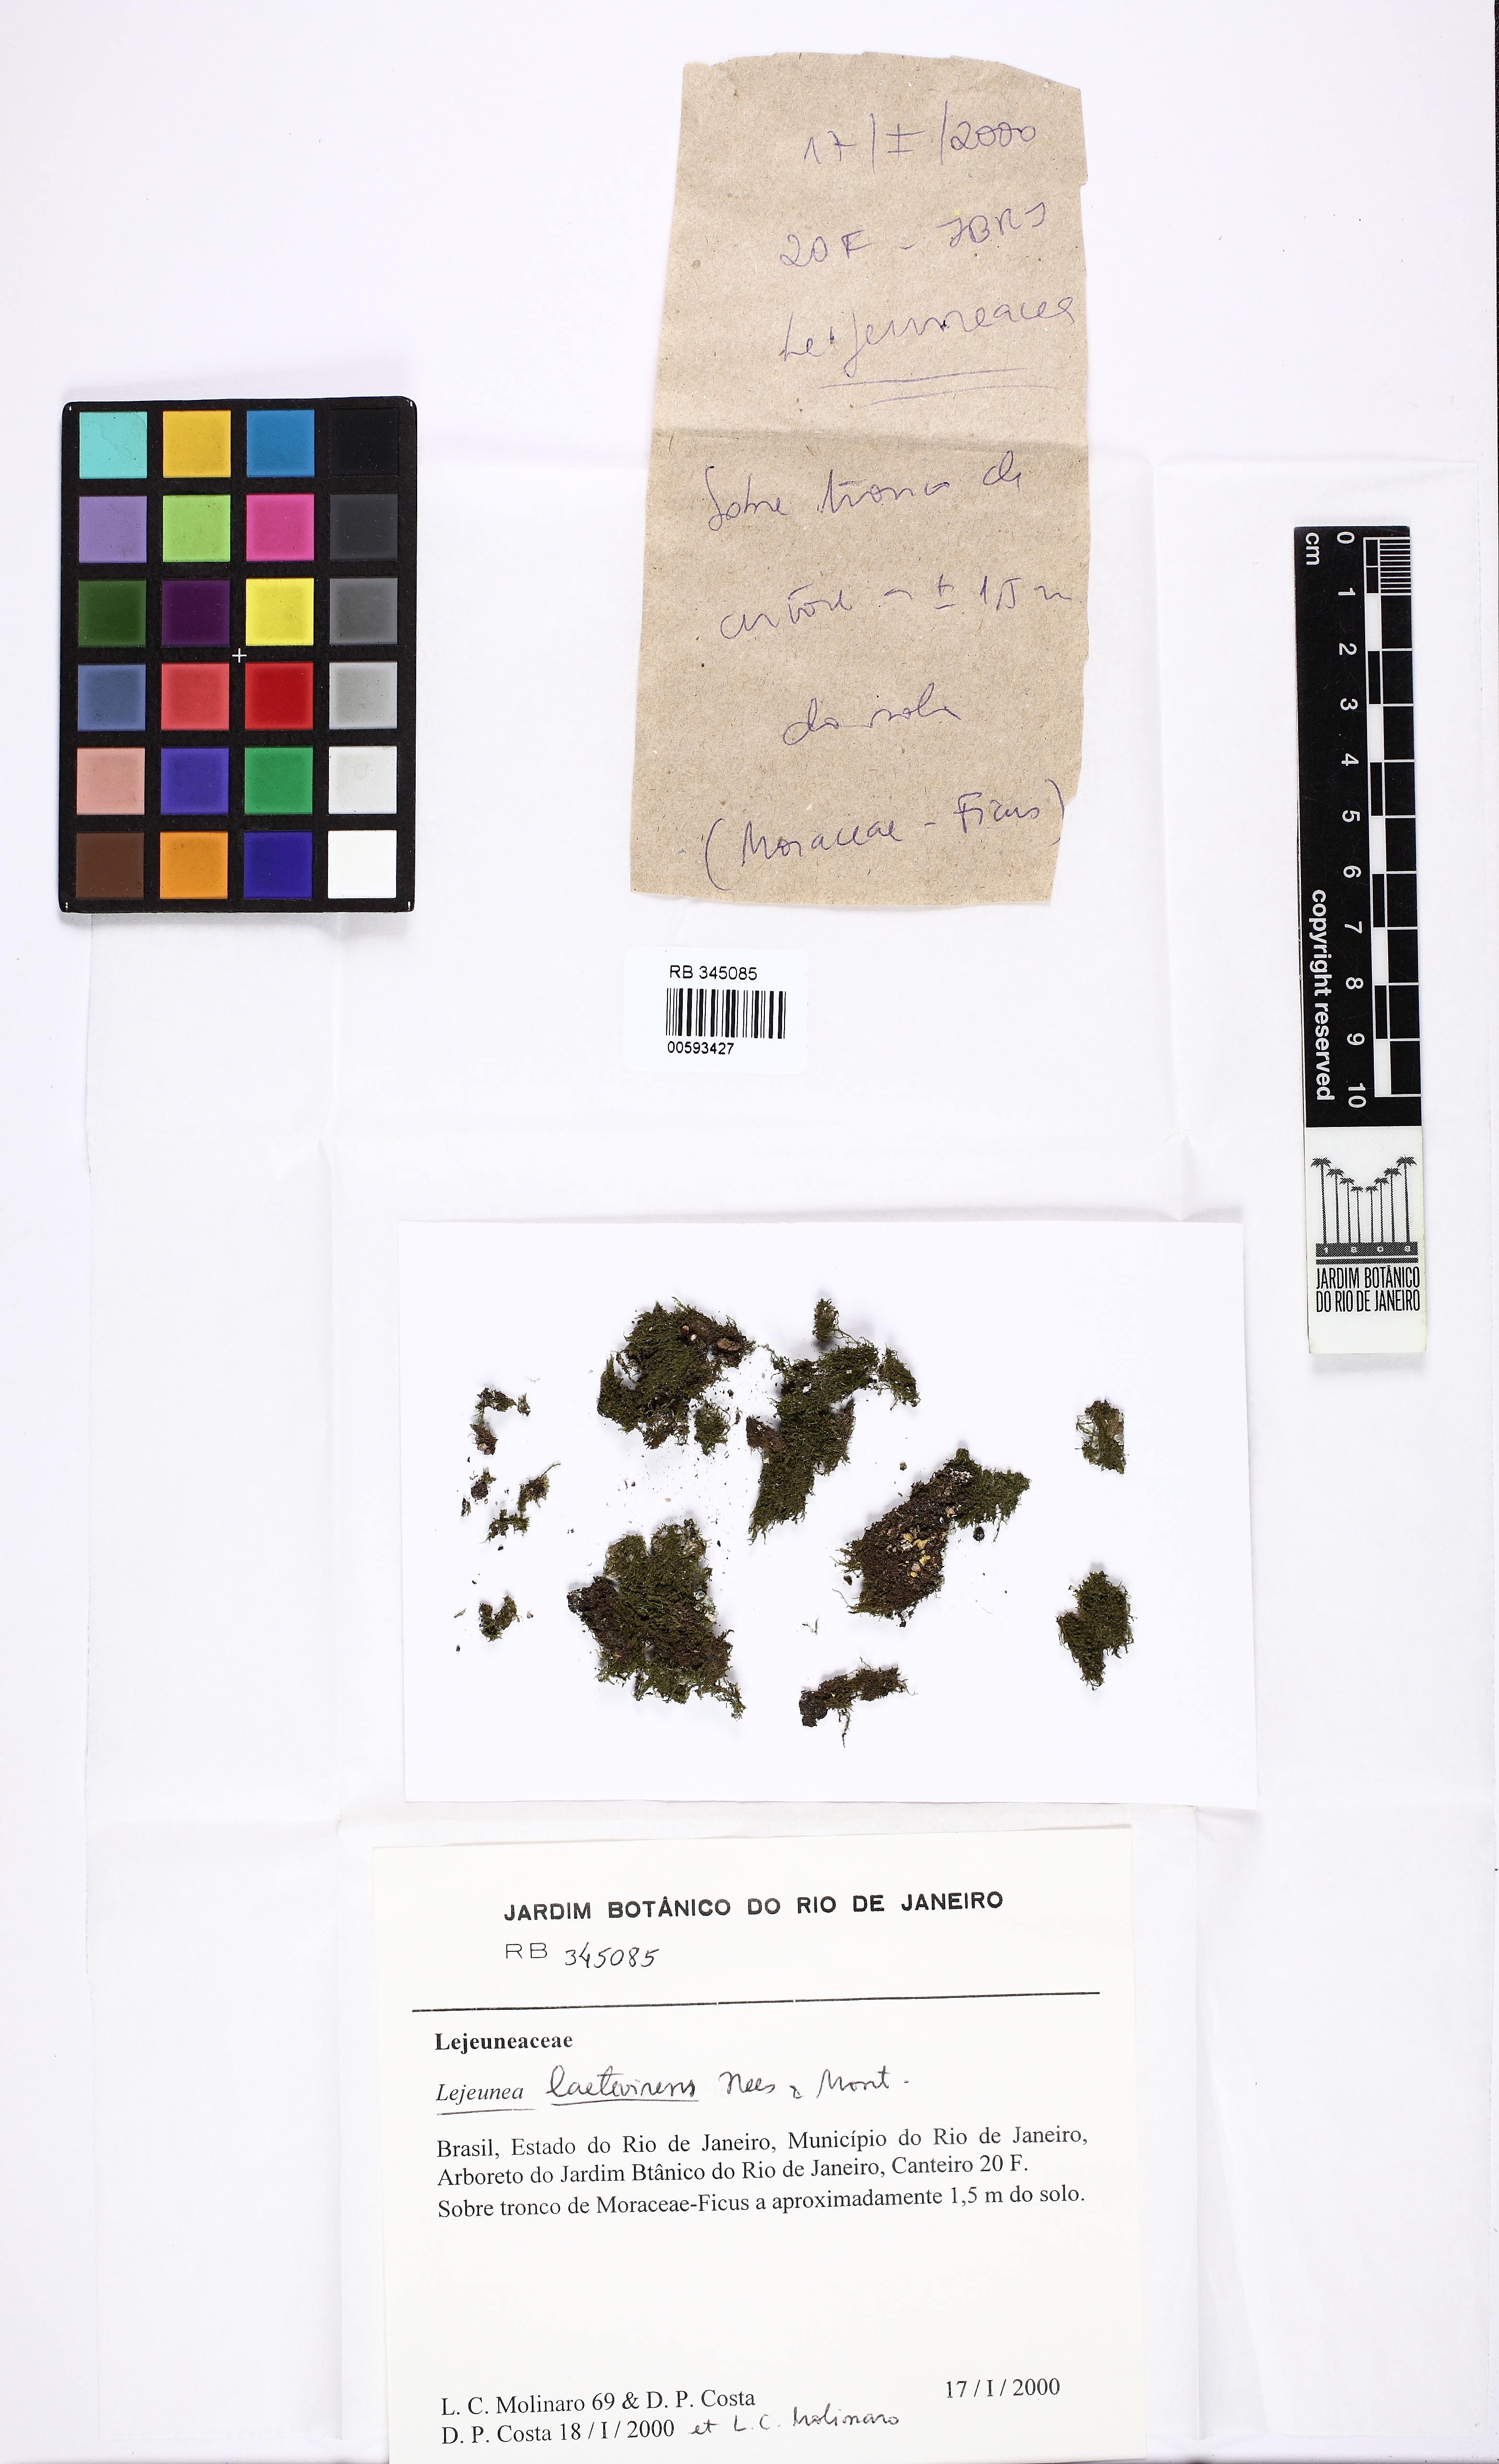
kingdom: Plantae
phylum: Marchantiophyta
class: Jungermanniopsida
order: Porellales
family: Lejeuneaceae
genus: Lejeunea
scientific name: Lejeunea laetevirens
